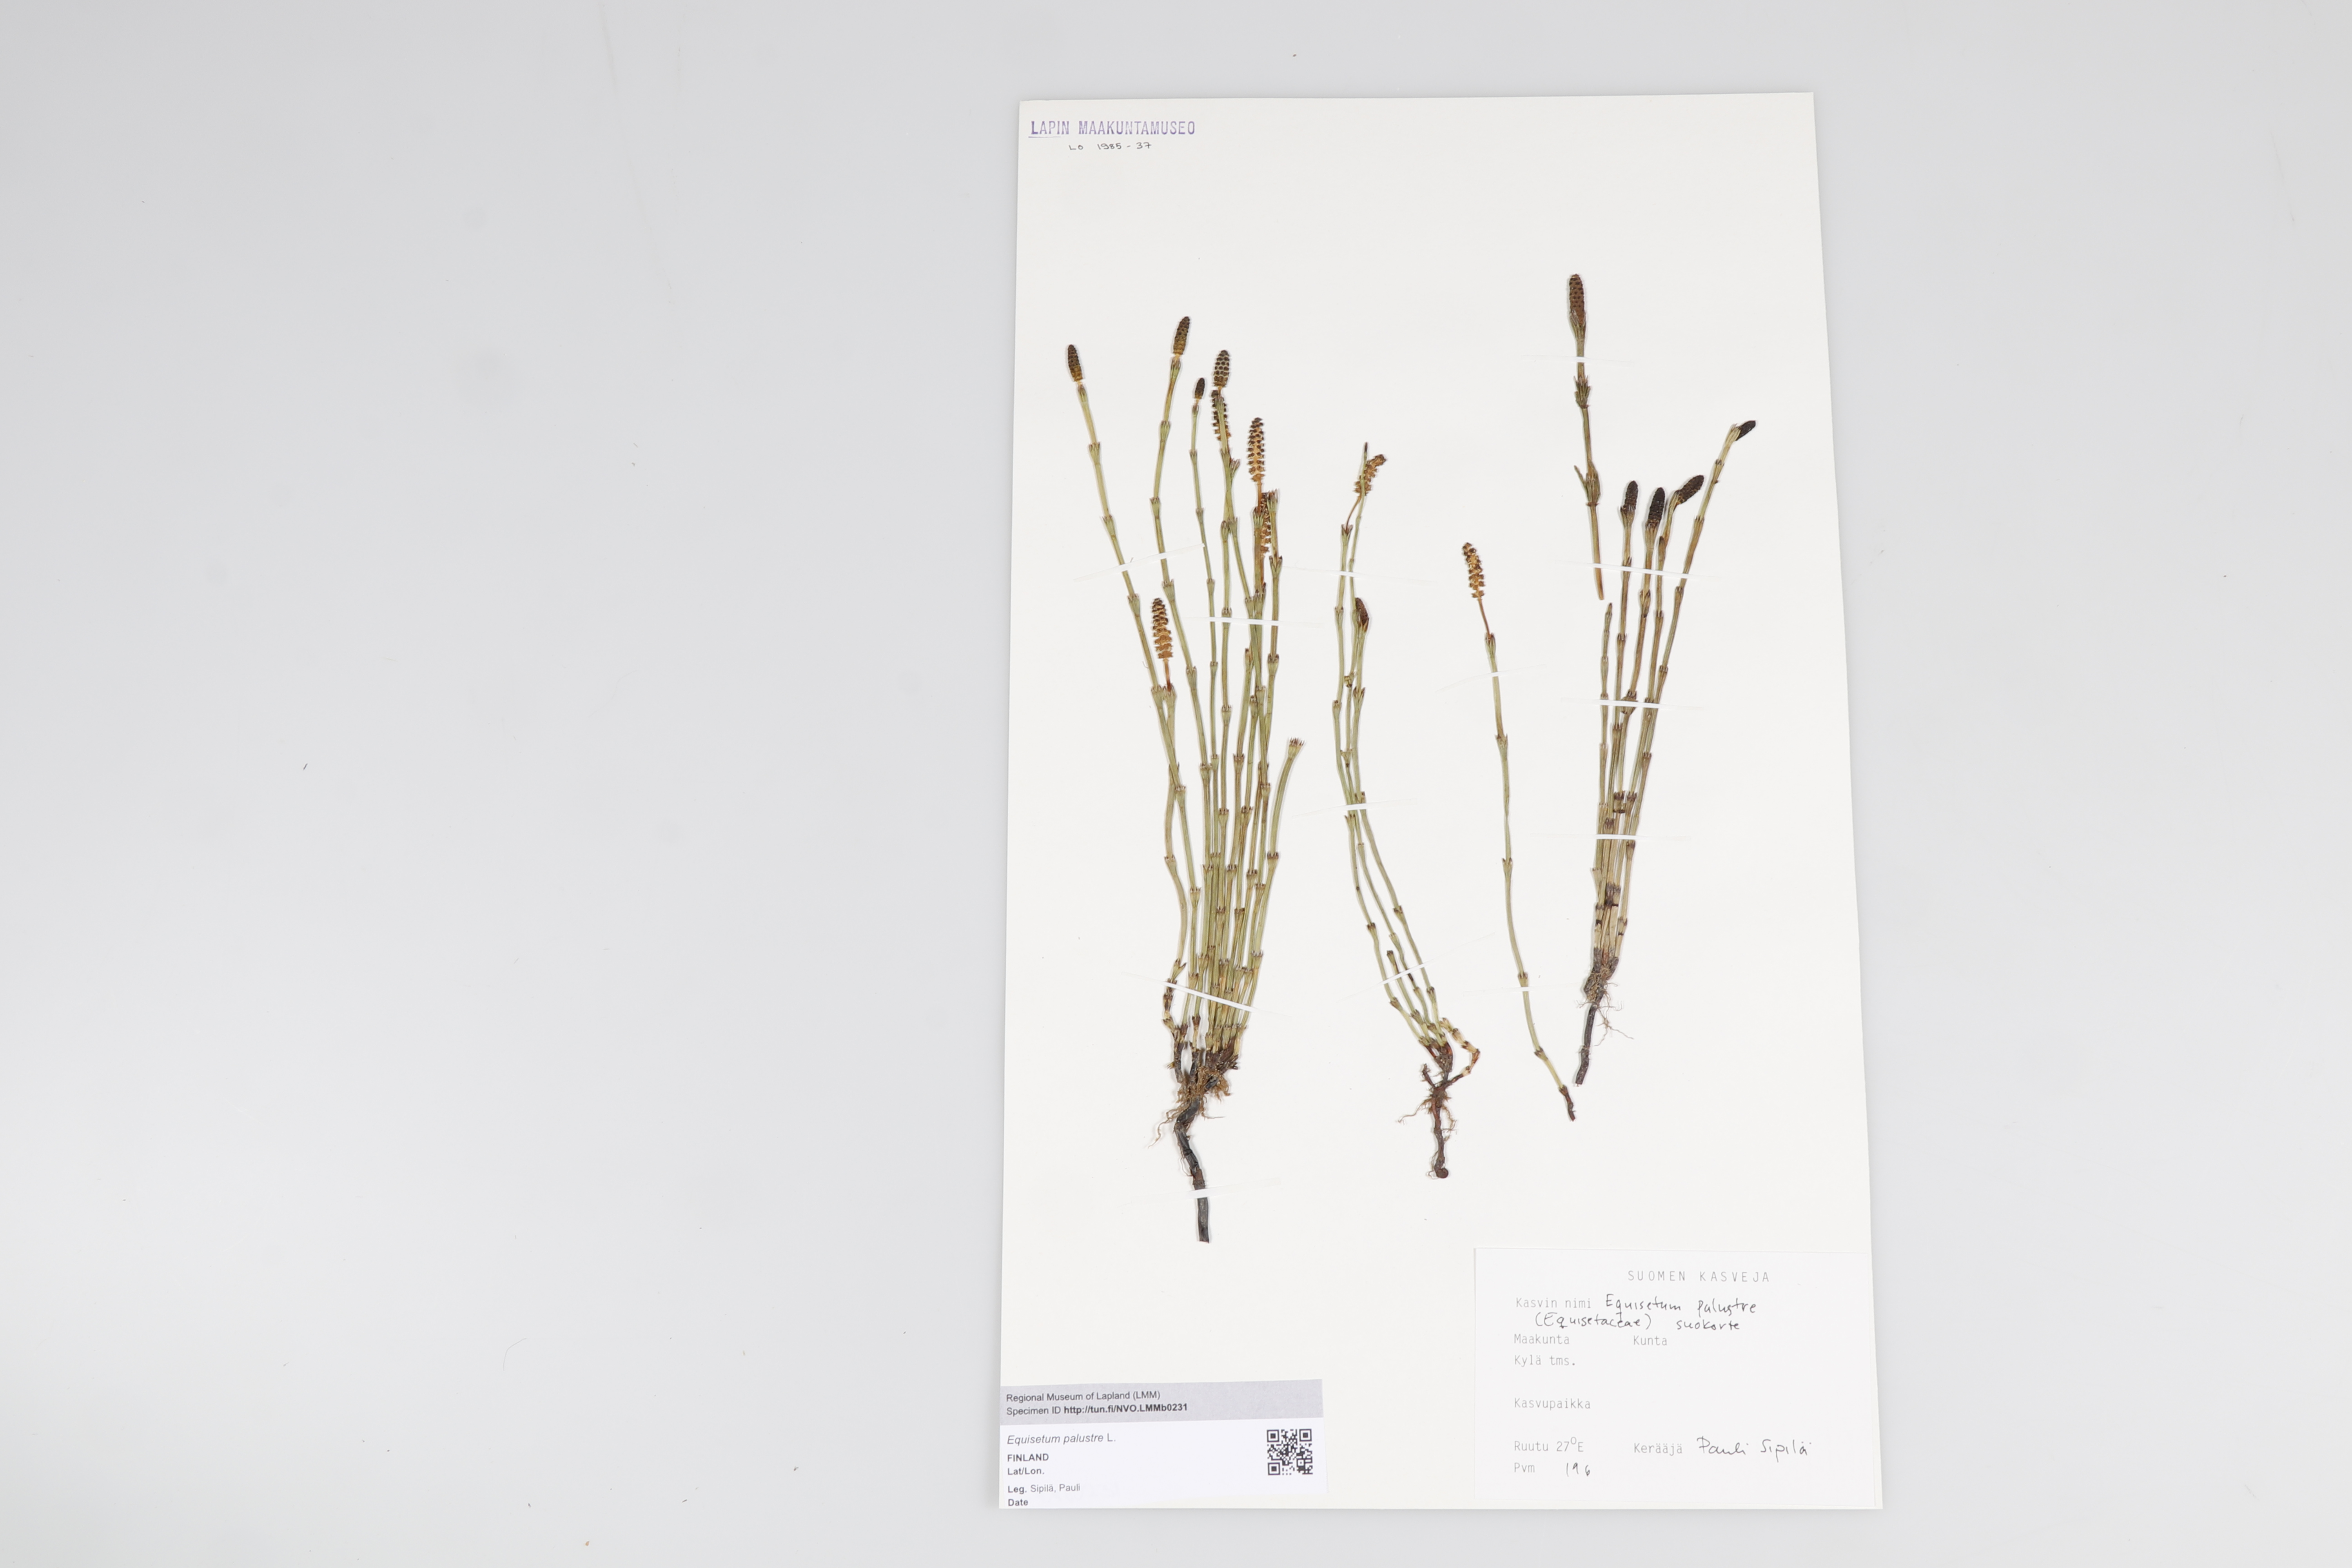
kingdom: Plantae
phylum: Tracheophyta
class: Polypodiopsida
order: Equisetales
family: Equisetaceae
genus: Equisetum
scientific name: Equisetum palustre
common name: Marsh horsetail
